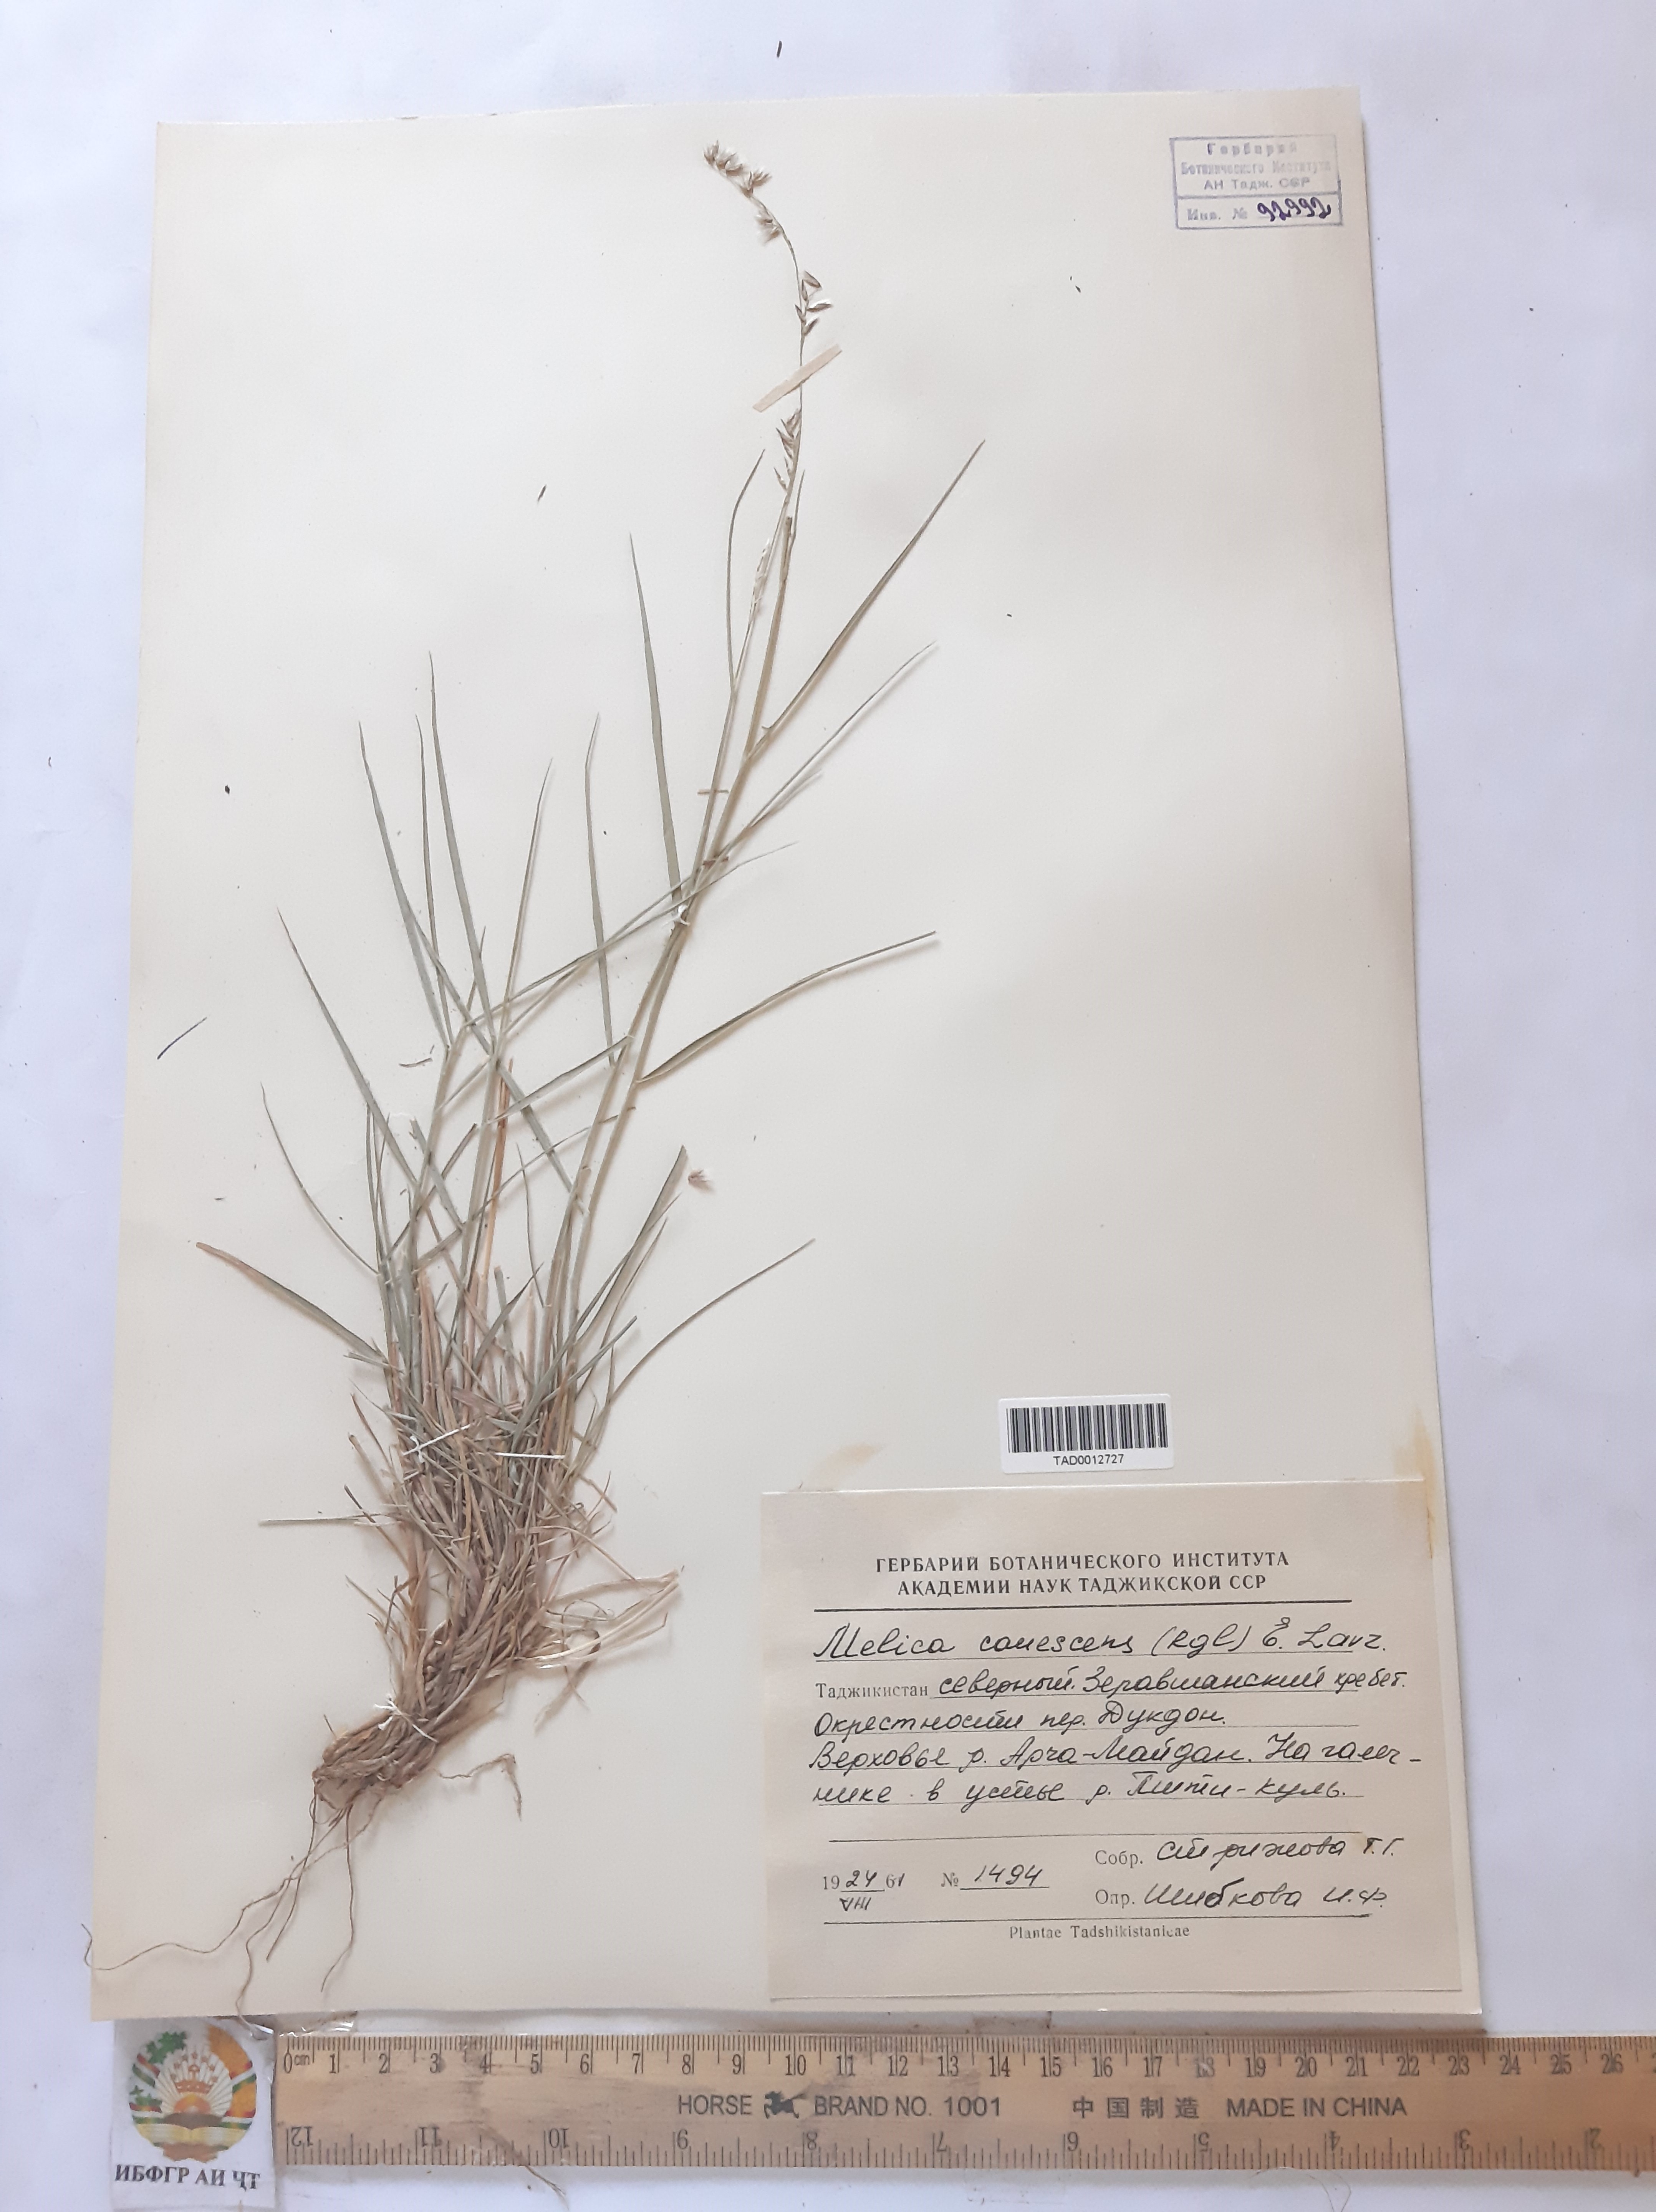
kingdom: Plantae
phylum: Tracheophyta
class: Liliopsida
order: Poales
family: Poaceae
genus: Melica
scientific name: Melica persica
